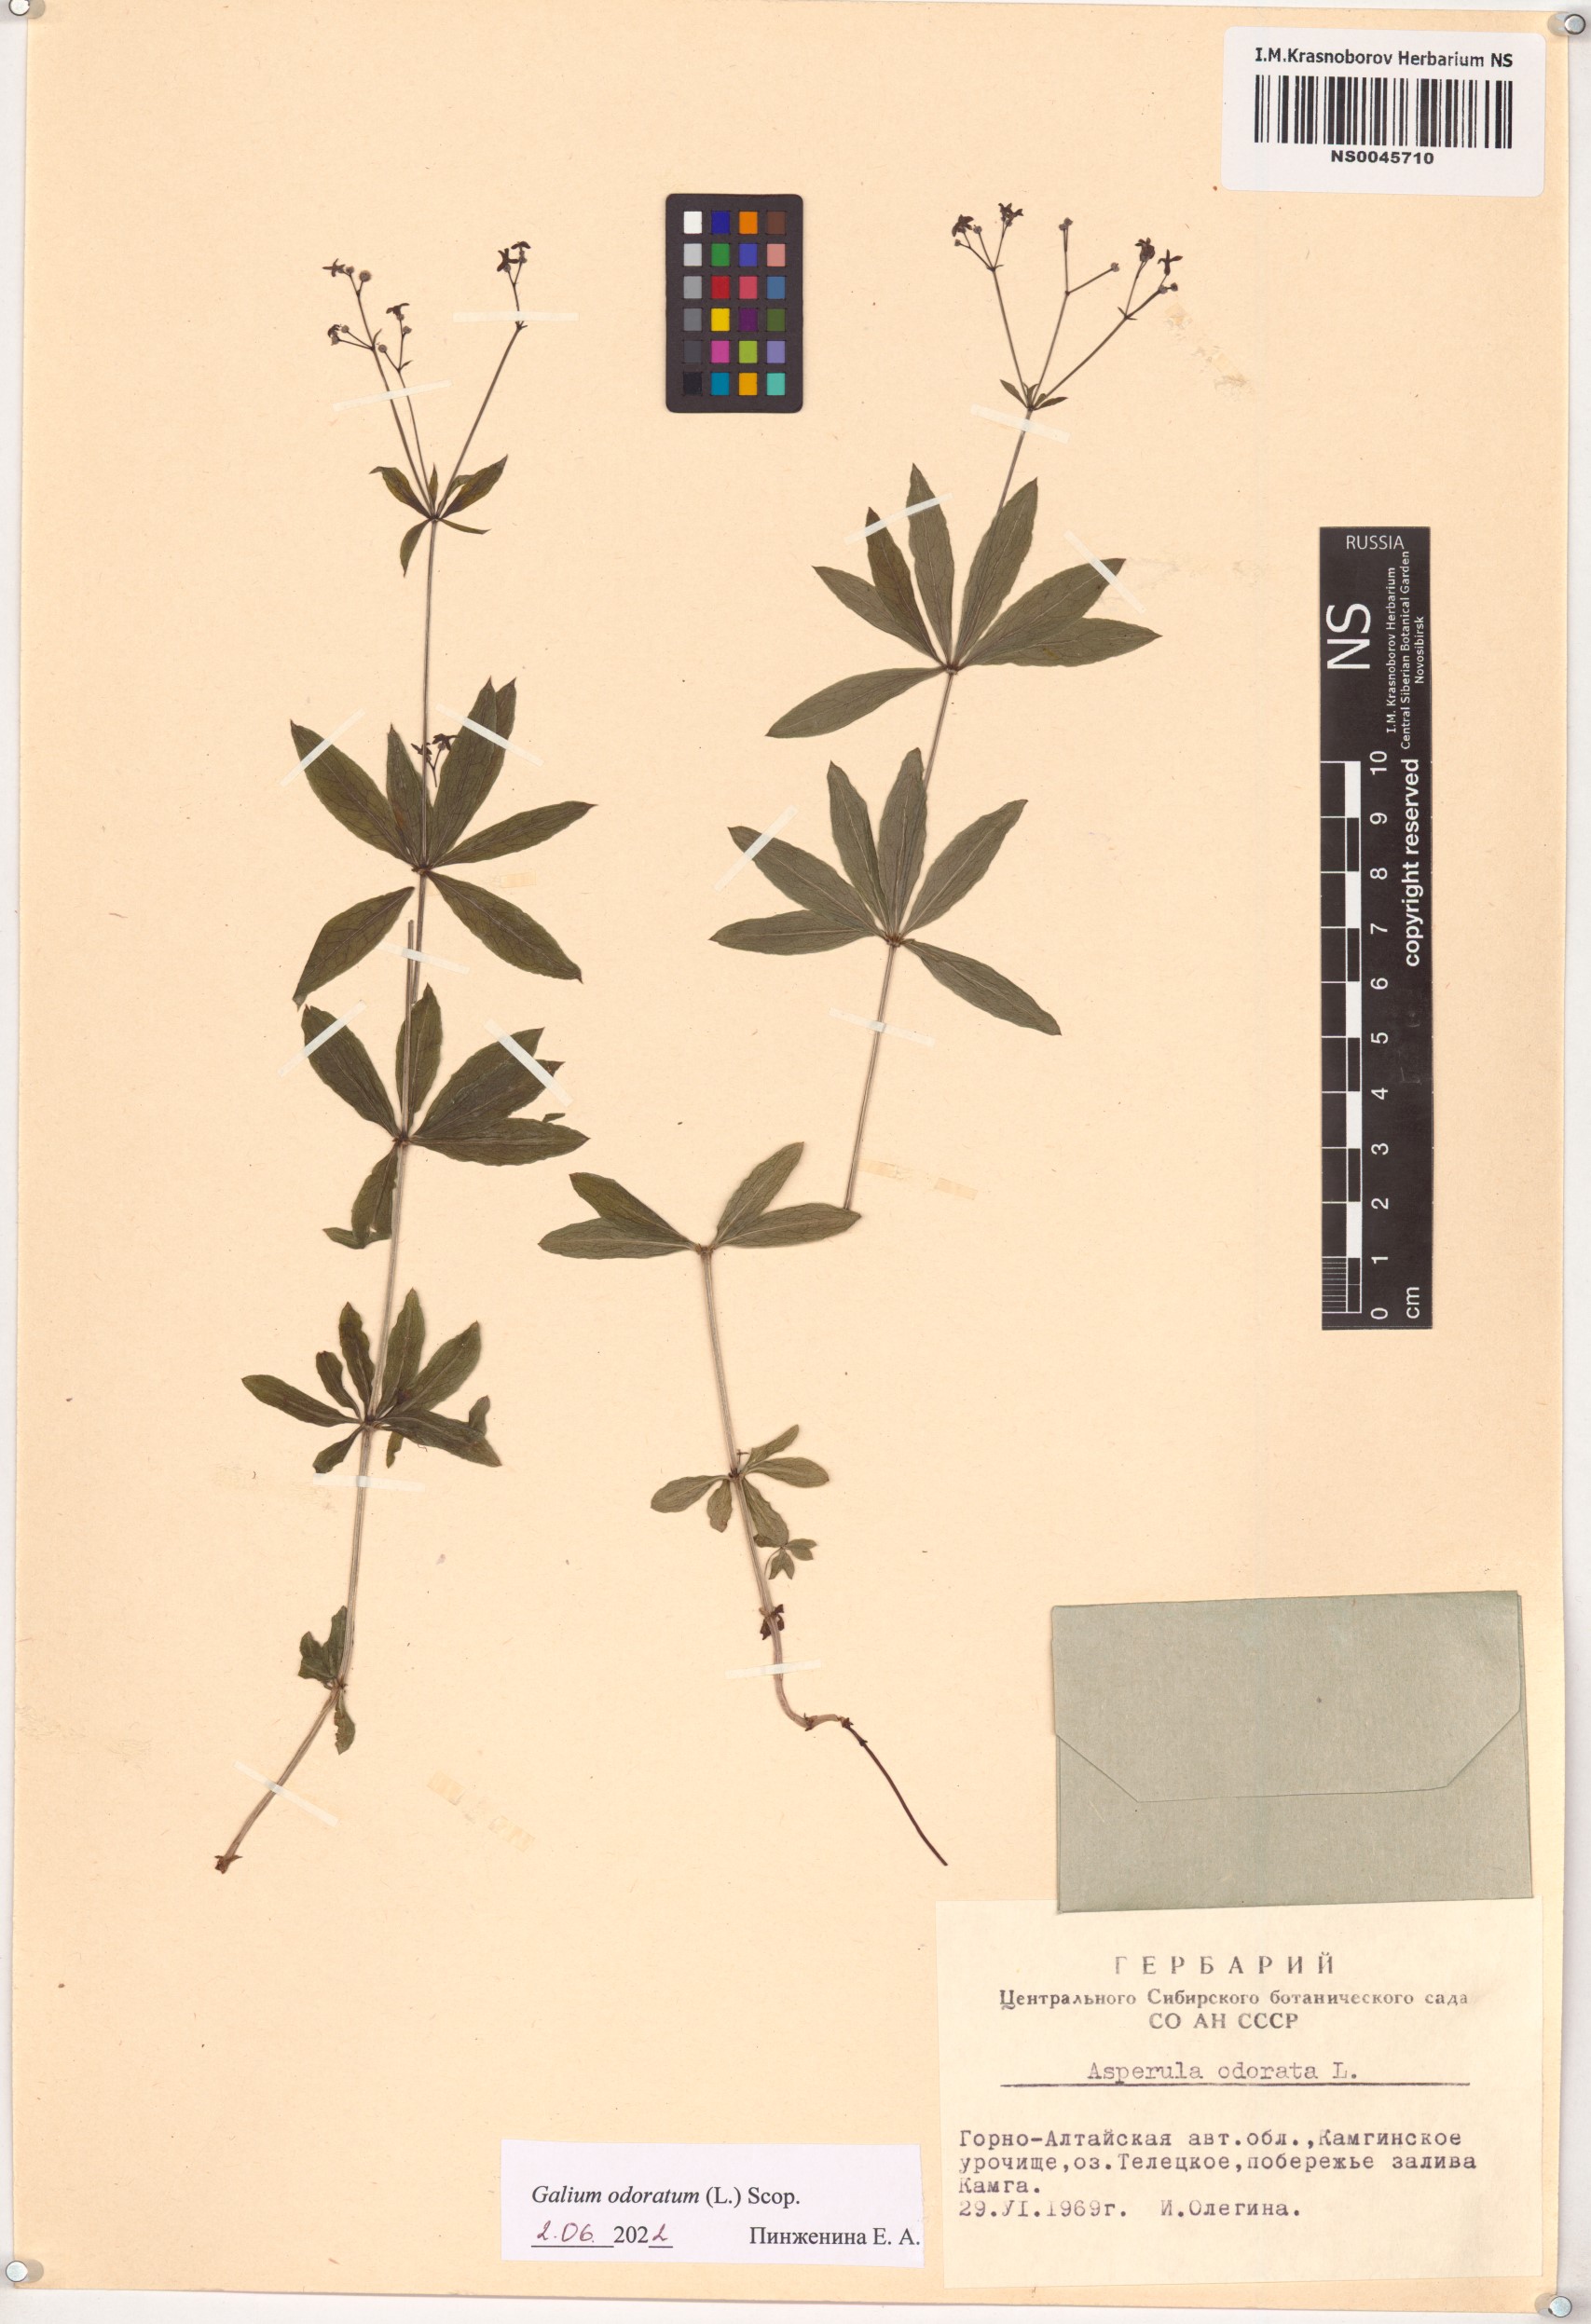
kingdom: Plantae
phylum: Tracheophyta
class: Magnoliopsida
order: Gentianales
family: Rubiaceae
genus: Galium
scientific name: Galium odoratum
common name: Sweet woodruff
